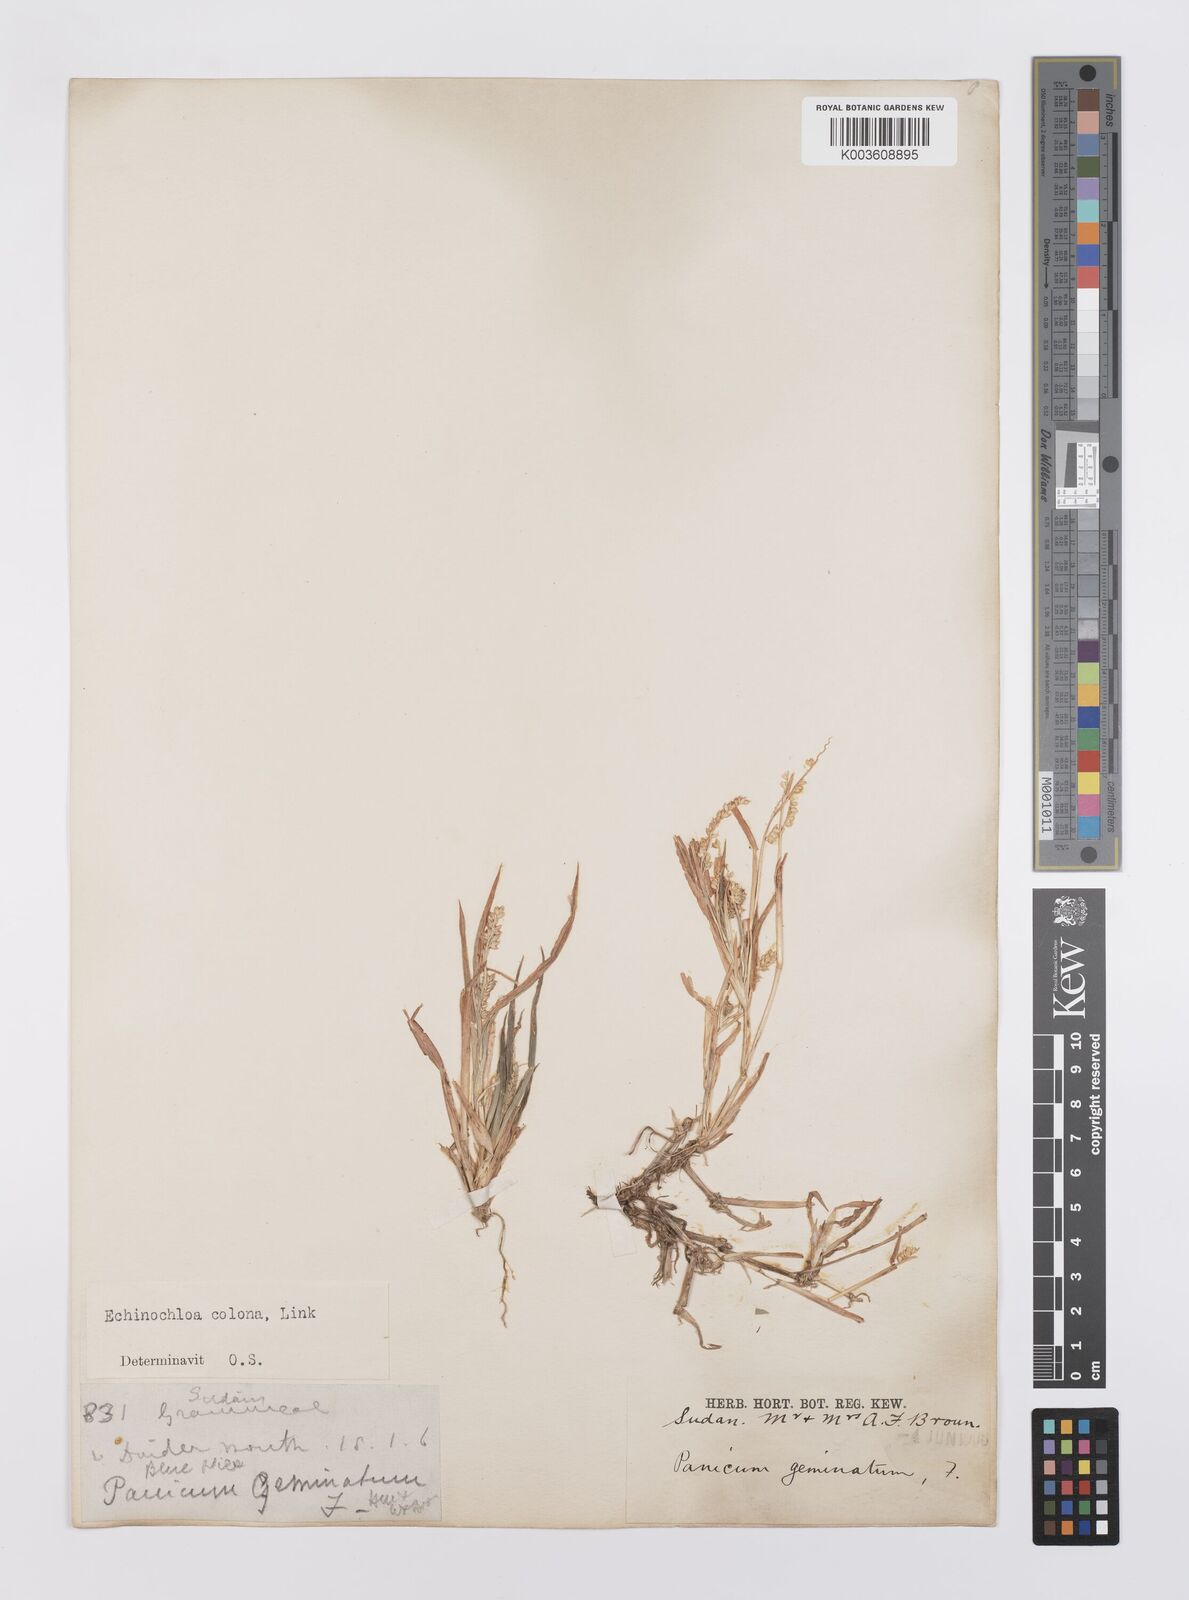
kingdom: Plantae
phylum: Tracheophyta
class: Liliopsida
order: Poales
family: Poaceae
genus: Echinochloa
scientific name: Echinochloa colonum
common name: Jungle rice
